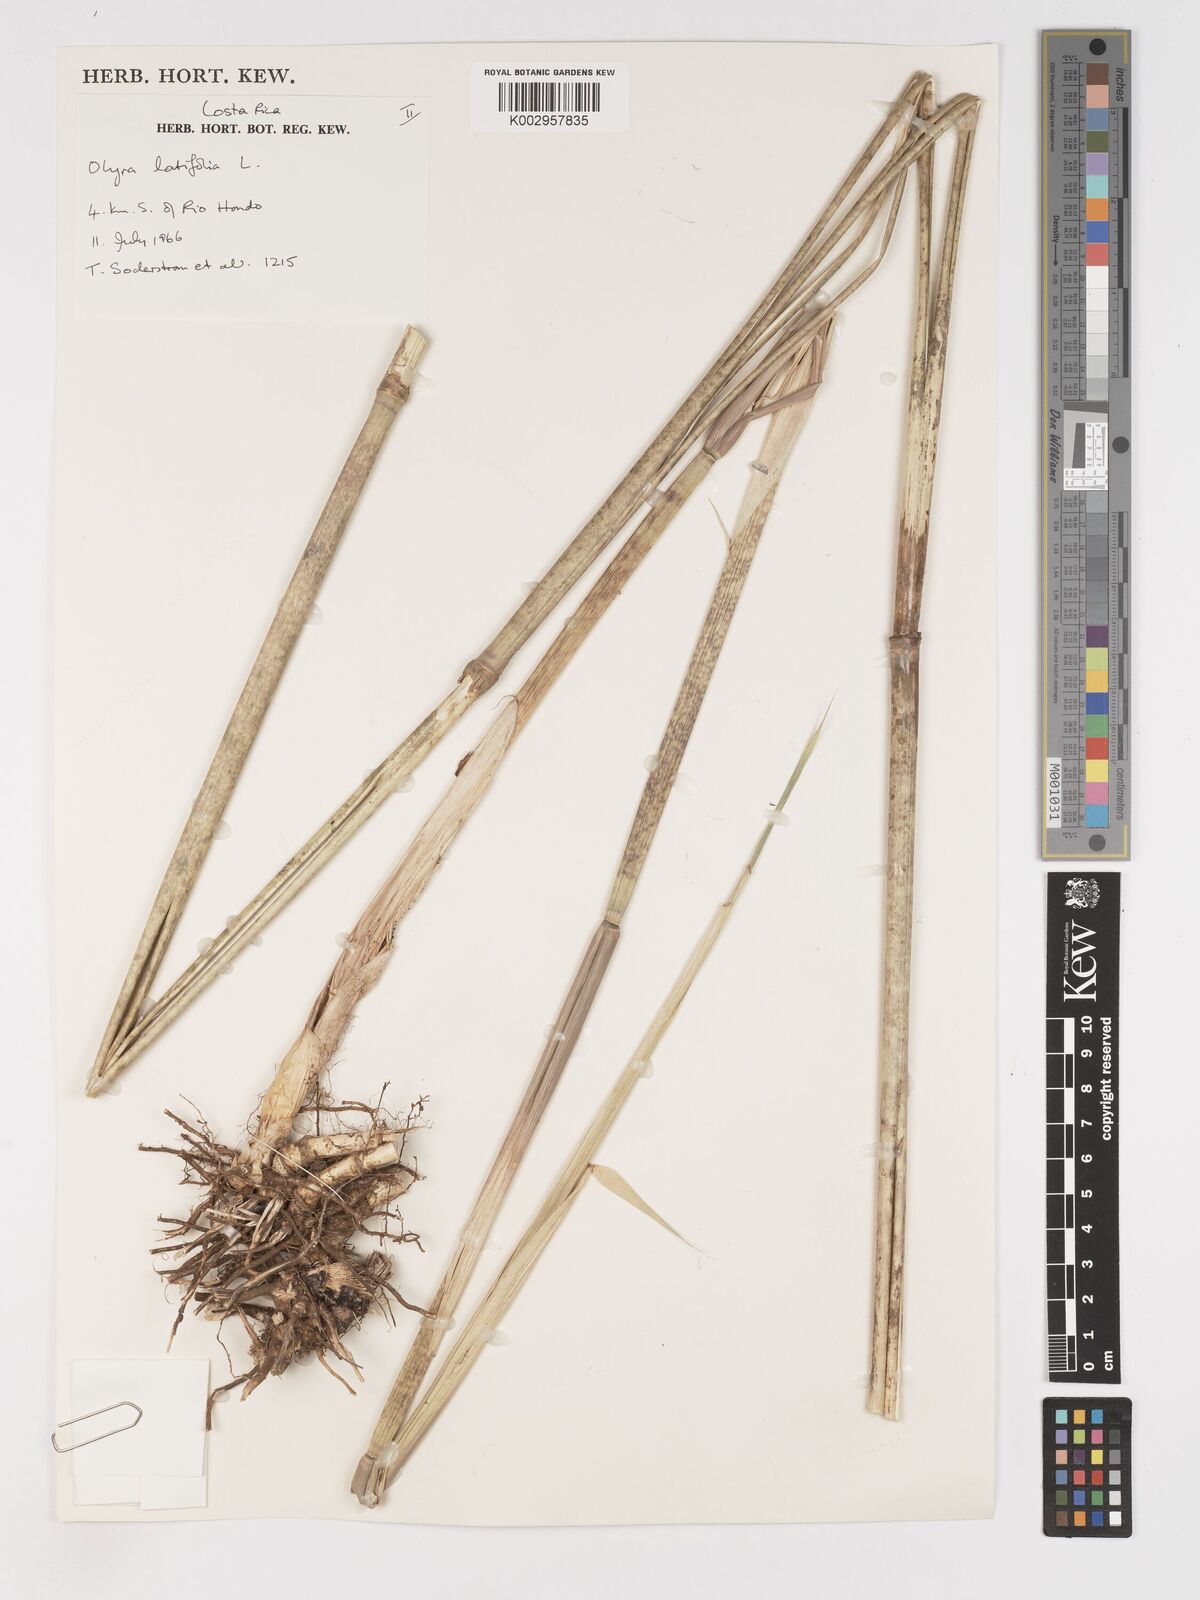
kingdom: Plantae
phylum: Tracheophyta
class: Liliopsida
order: Poales
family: Poaceae
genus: Olyra
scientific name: Olyra latifolia
